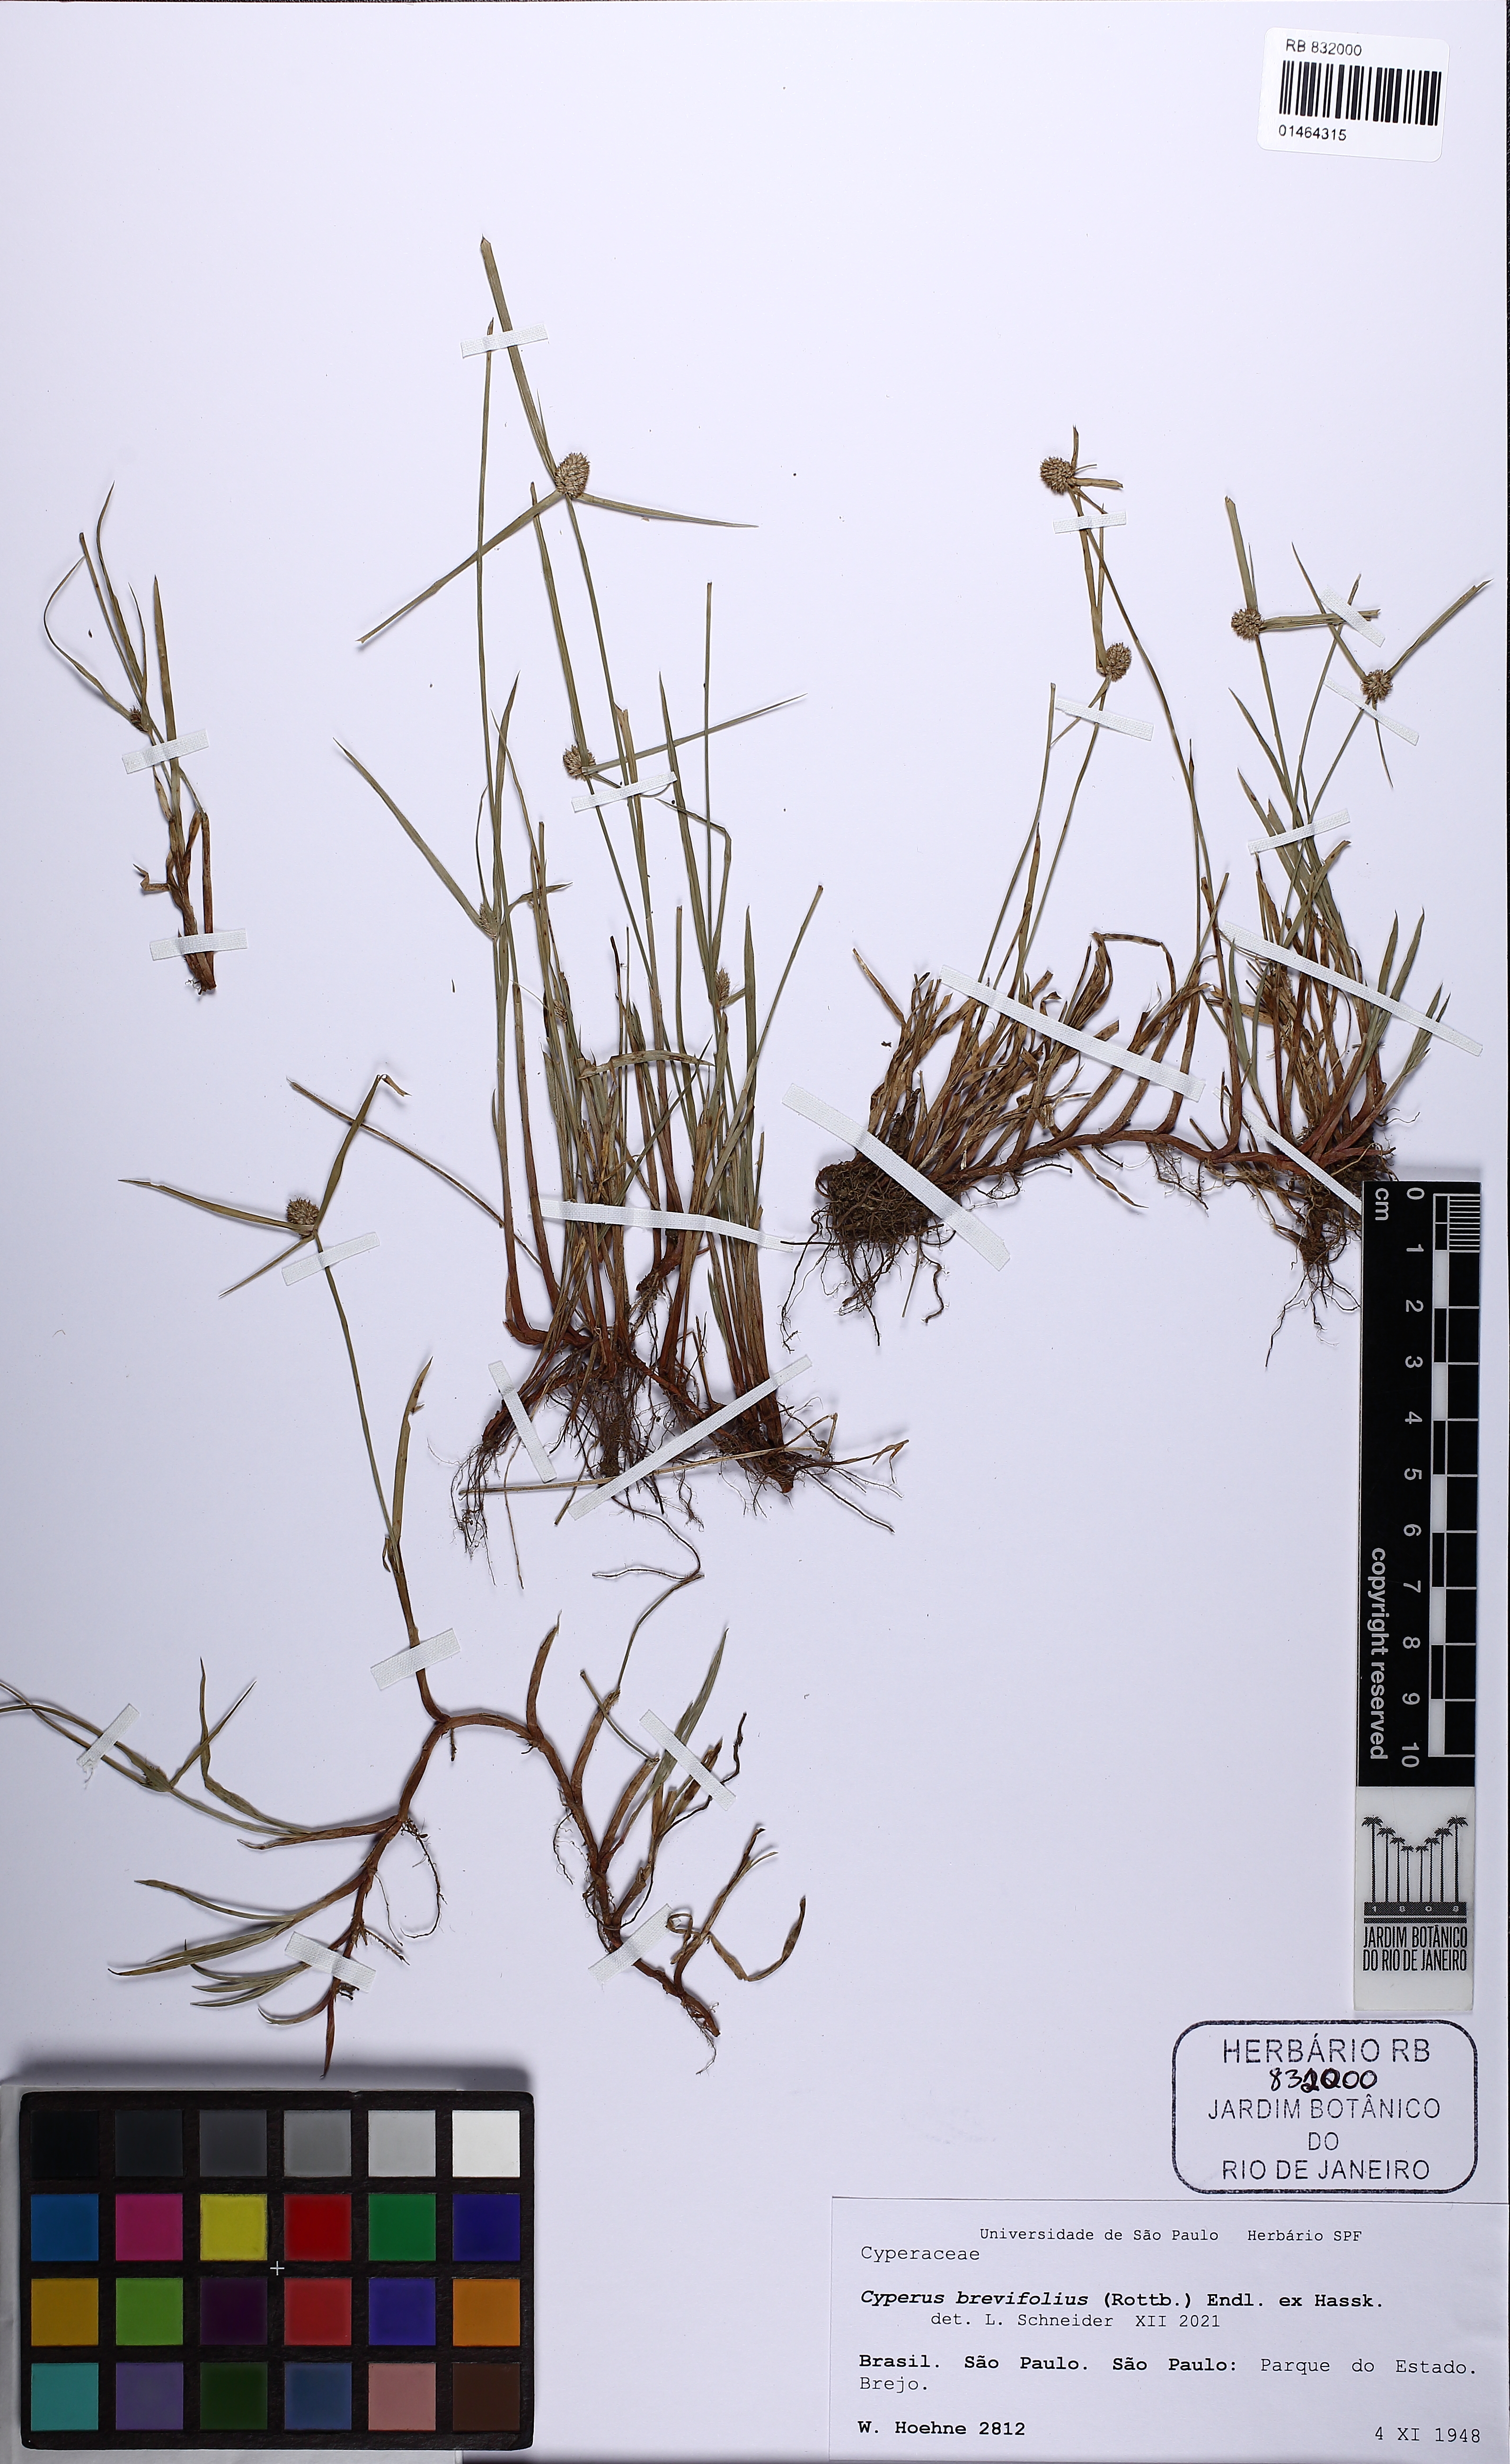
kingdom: Plantae
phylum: Tracheophyta
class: Liliopsida
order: Poales
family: Cyperaceae
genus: Cyperus
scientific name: Cyperus brevifolius
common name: Globe kyllinga
